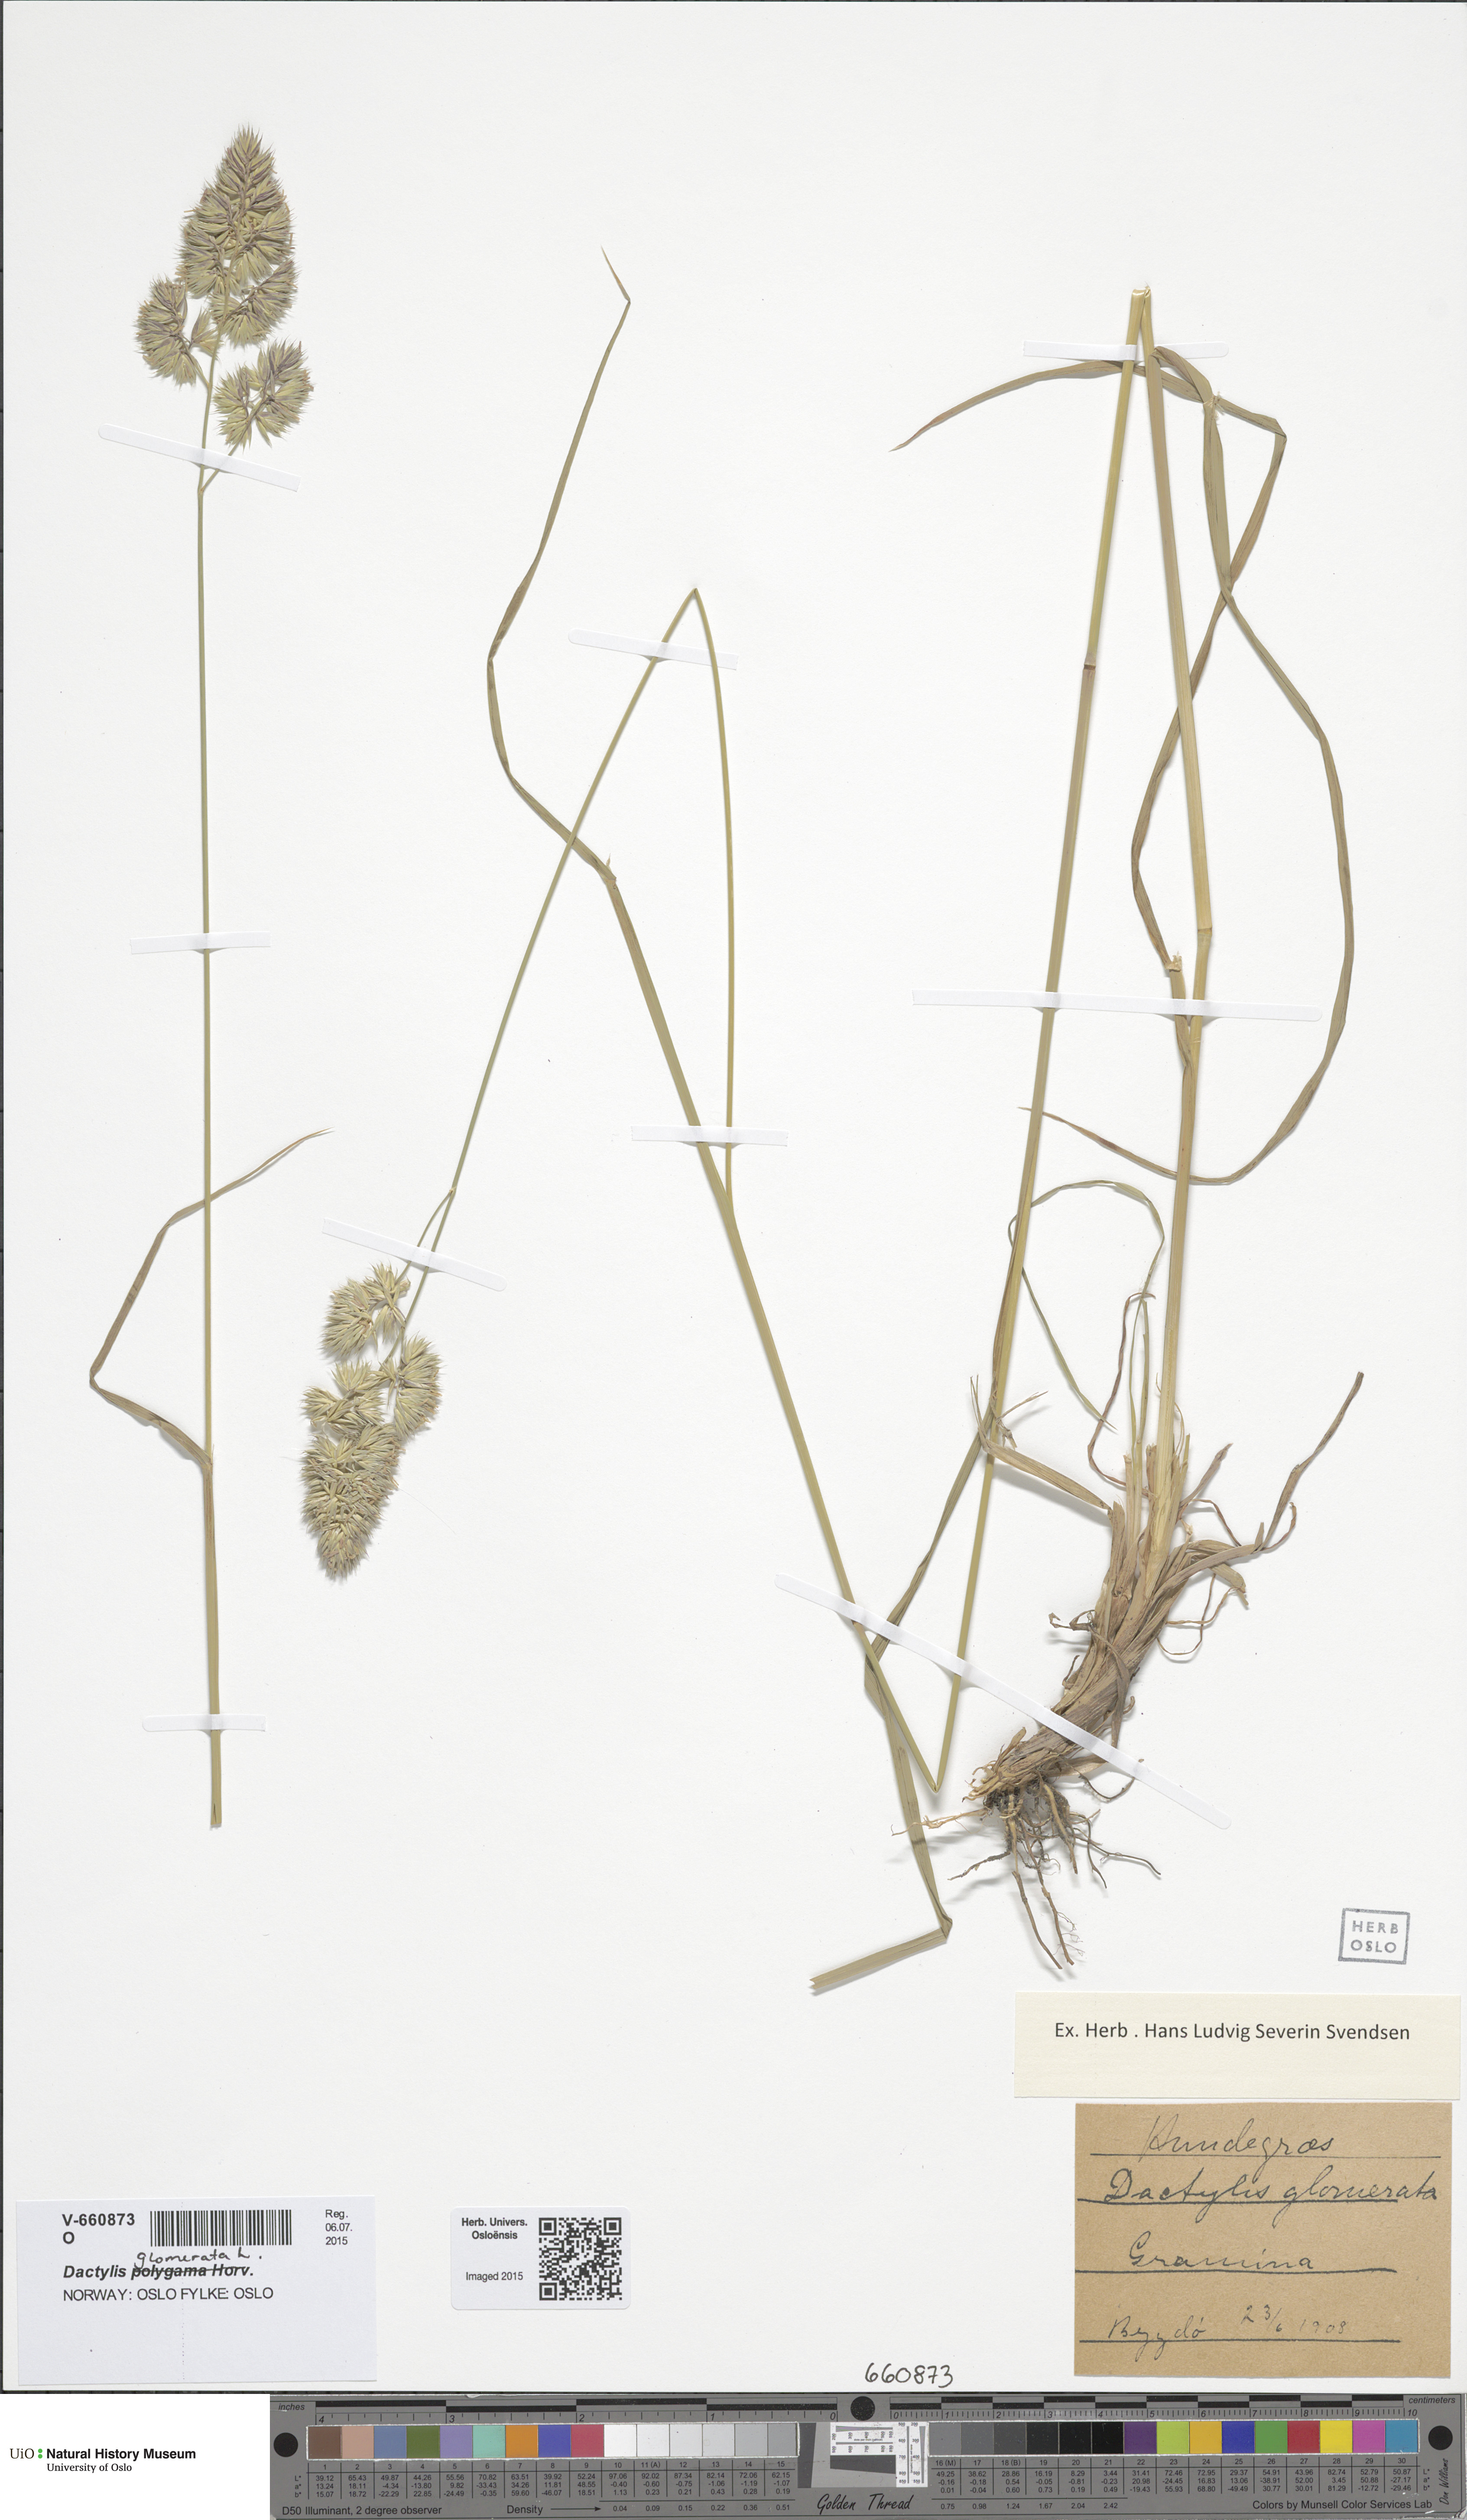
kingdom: Plantae
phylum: Tracheophyta
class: Liliopsida
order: Poales
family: Poaceae
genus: Dactylis
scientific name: Dactylis glomerata
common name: Orchardgrass
